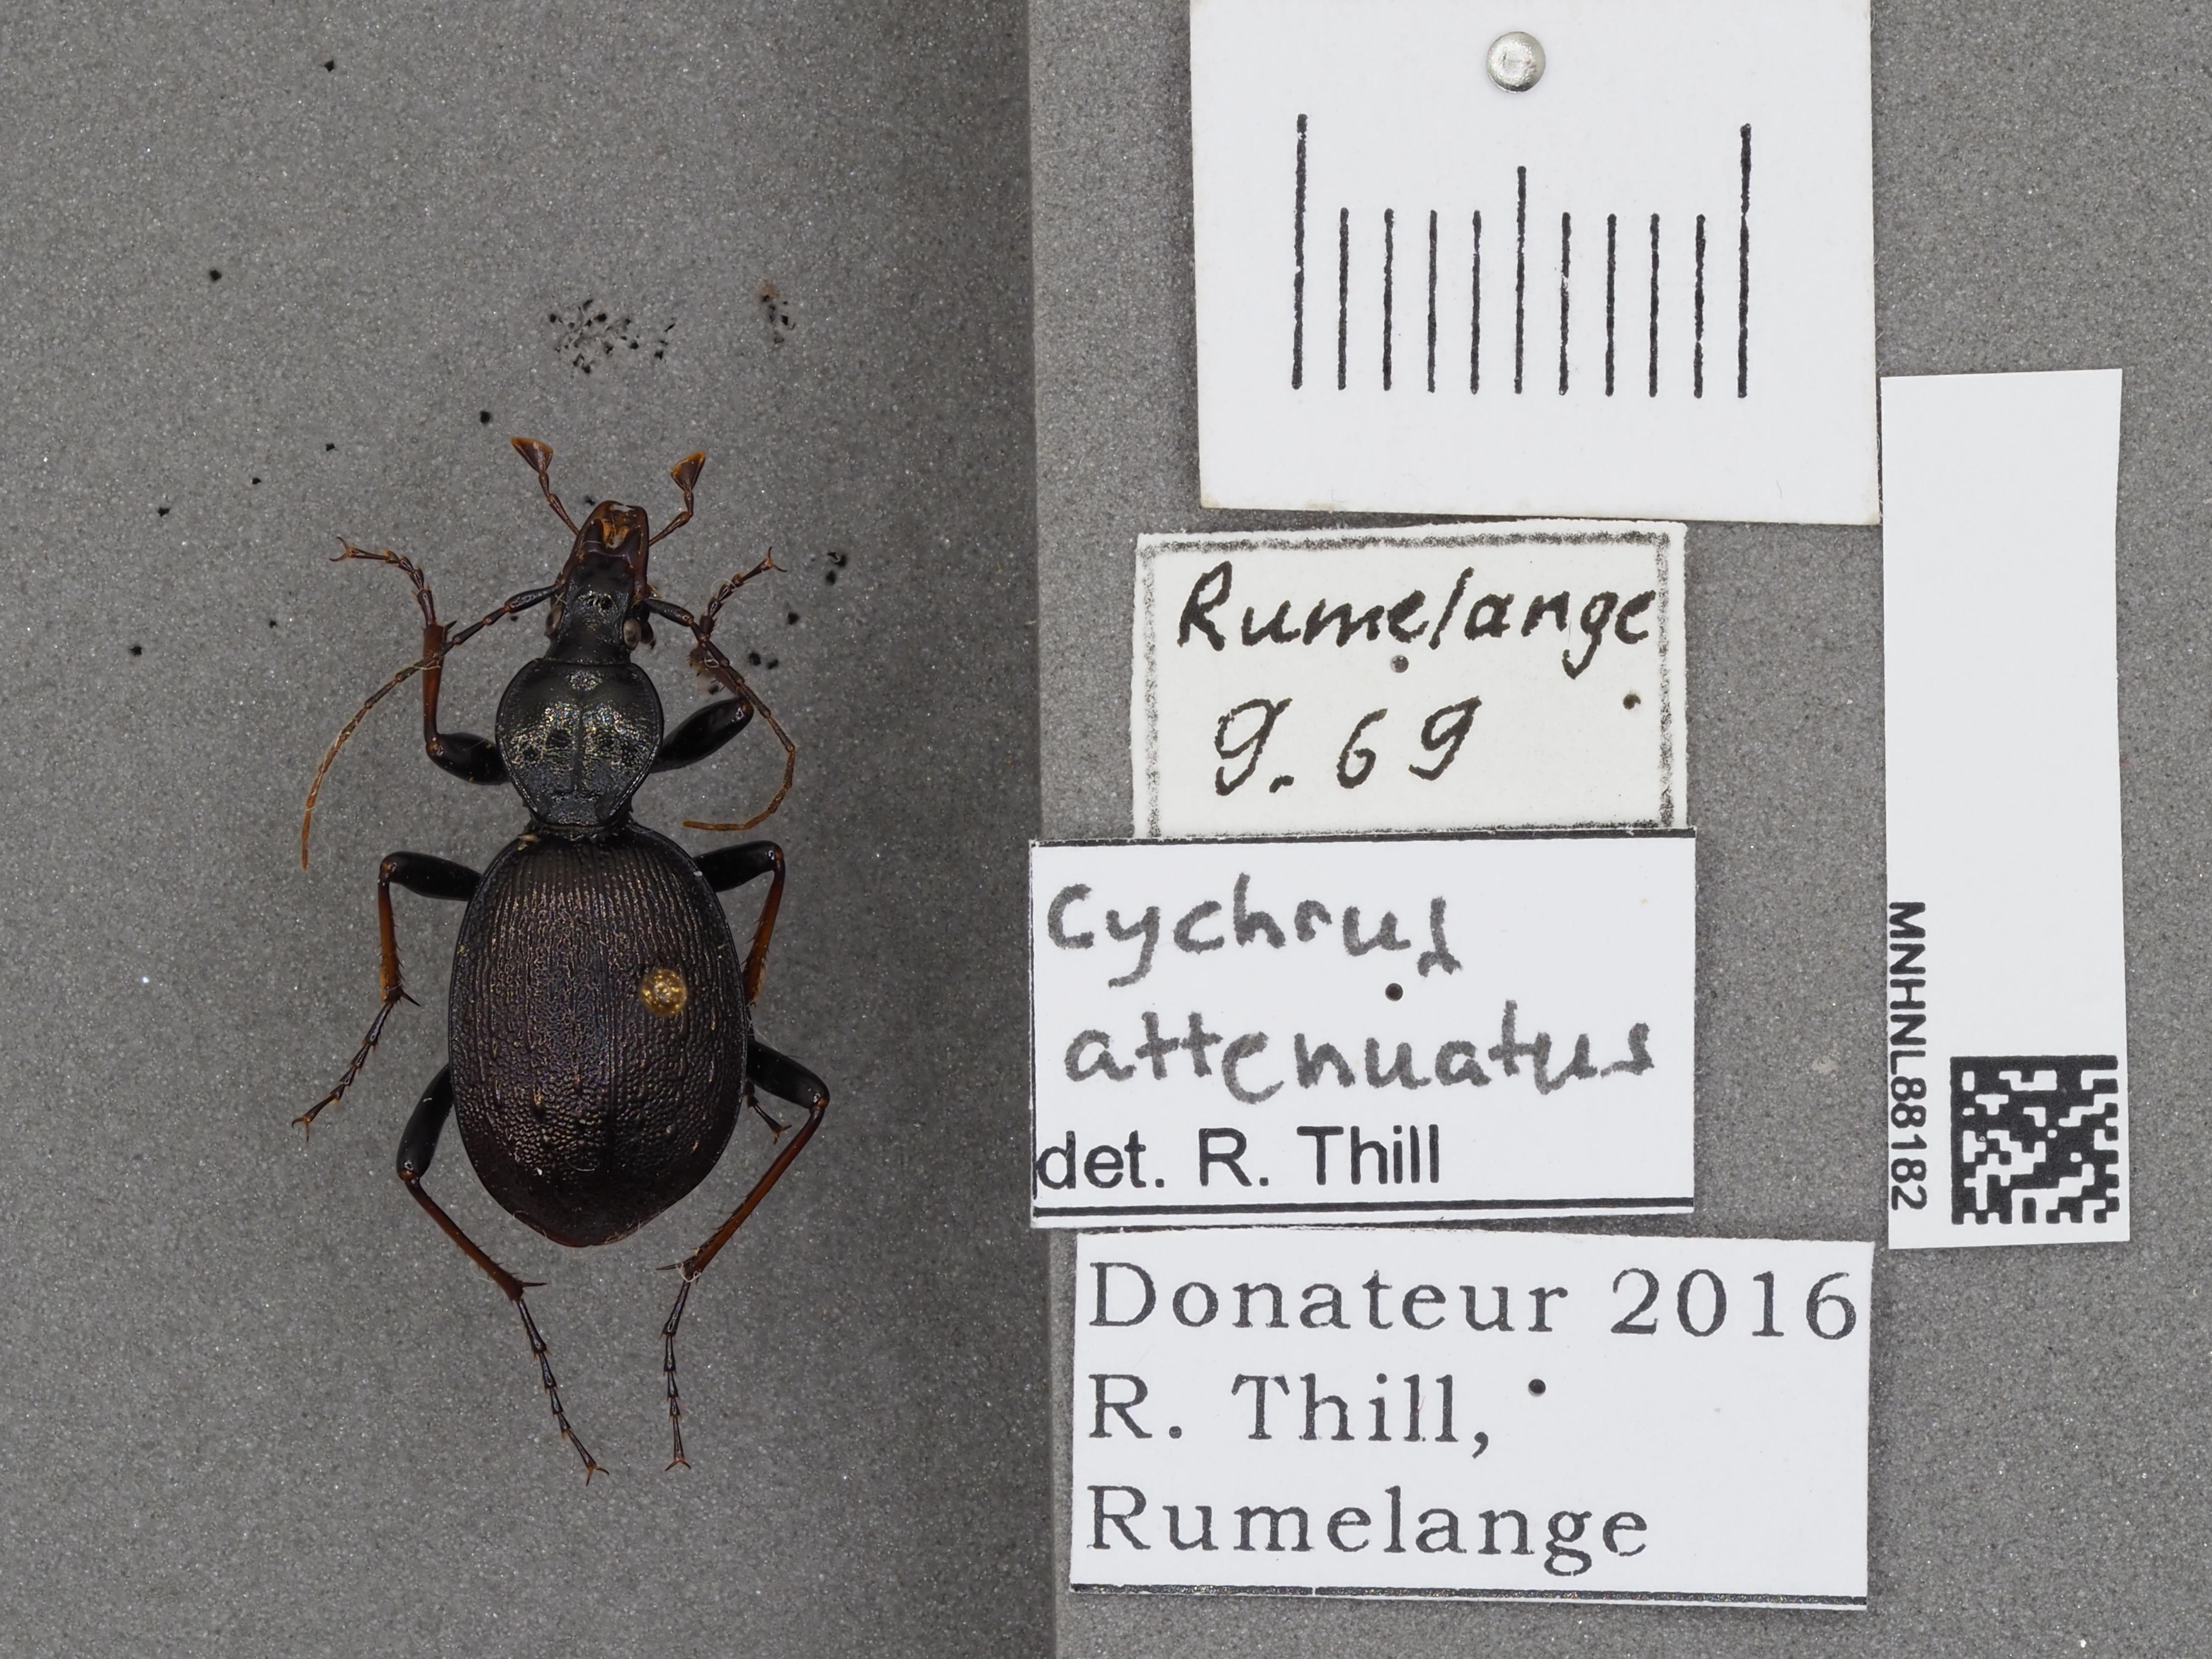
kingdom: Animalia
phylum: Arthropoda
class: Insecta
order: Coleoptera
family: Carabidae
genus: Cychrus
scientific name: Cychrus attenuatus
